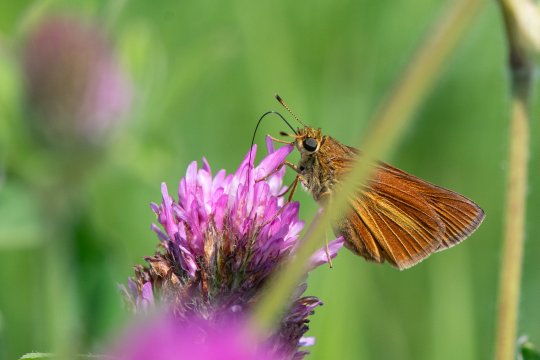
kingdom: Animalia
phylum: Arthropoda
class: Insecta
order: Lepidoptera
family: Hesperiidae
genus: Euphyes
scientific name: Euphyes dion
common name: Dion Skipper
